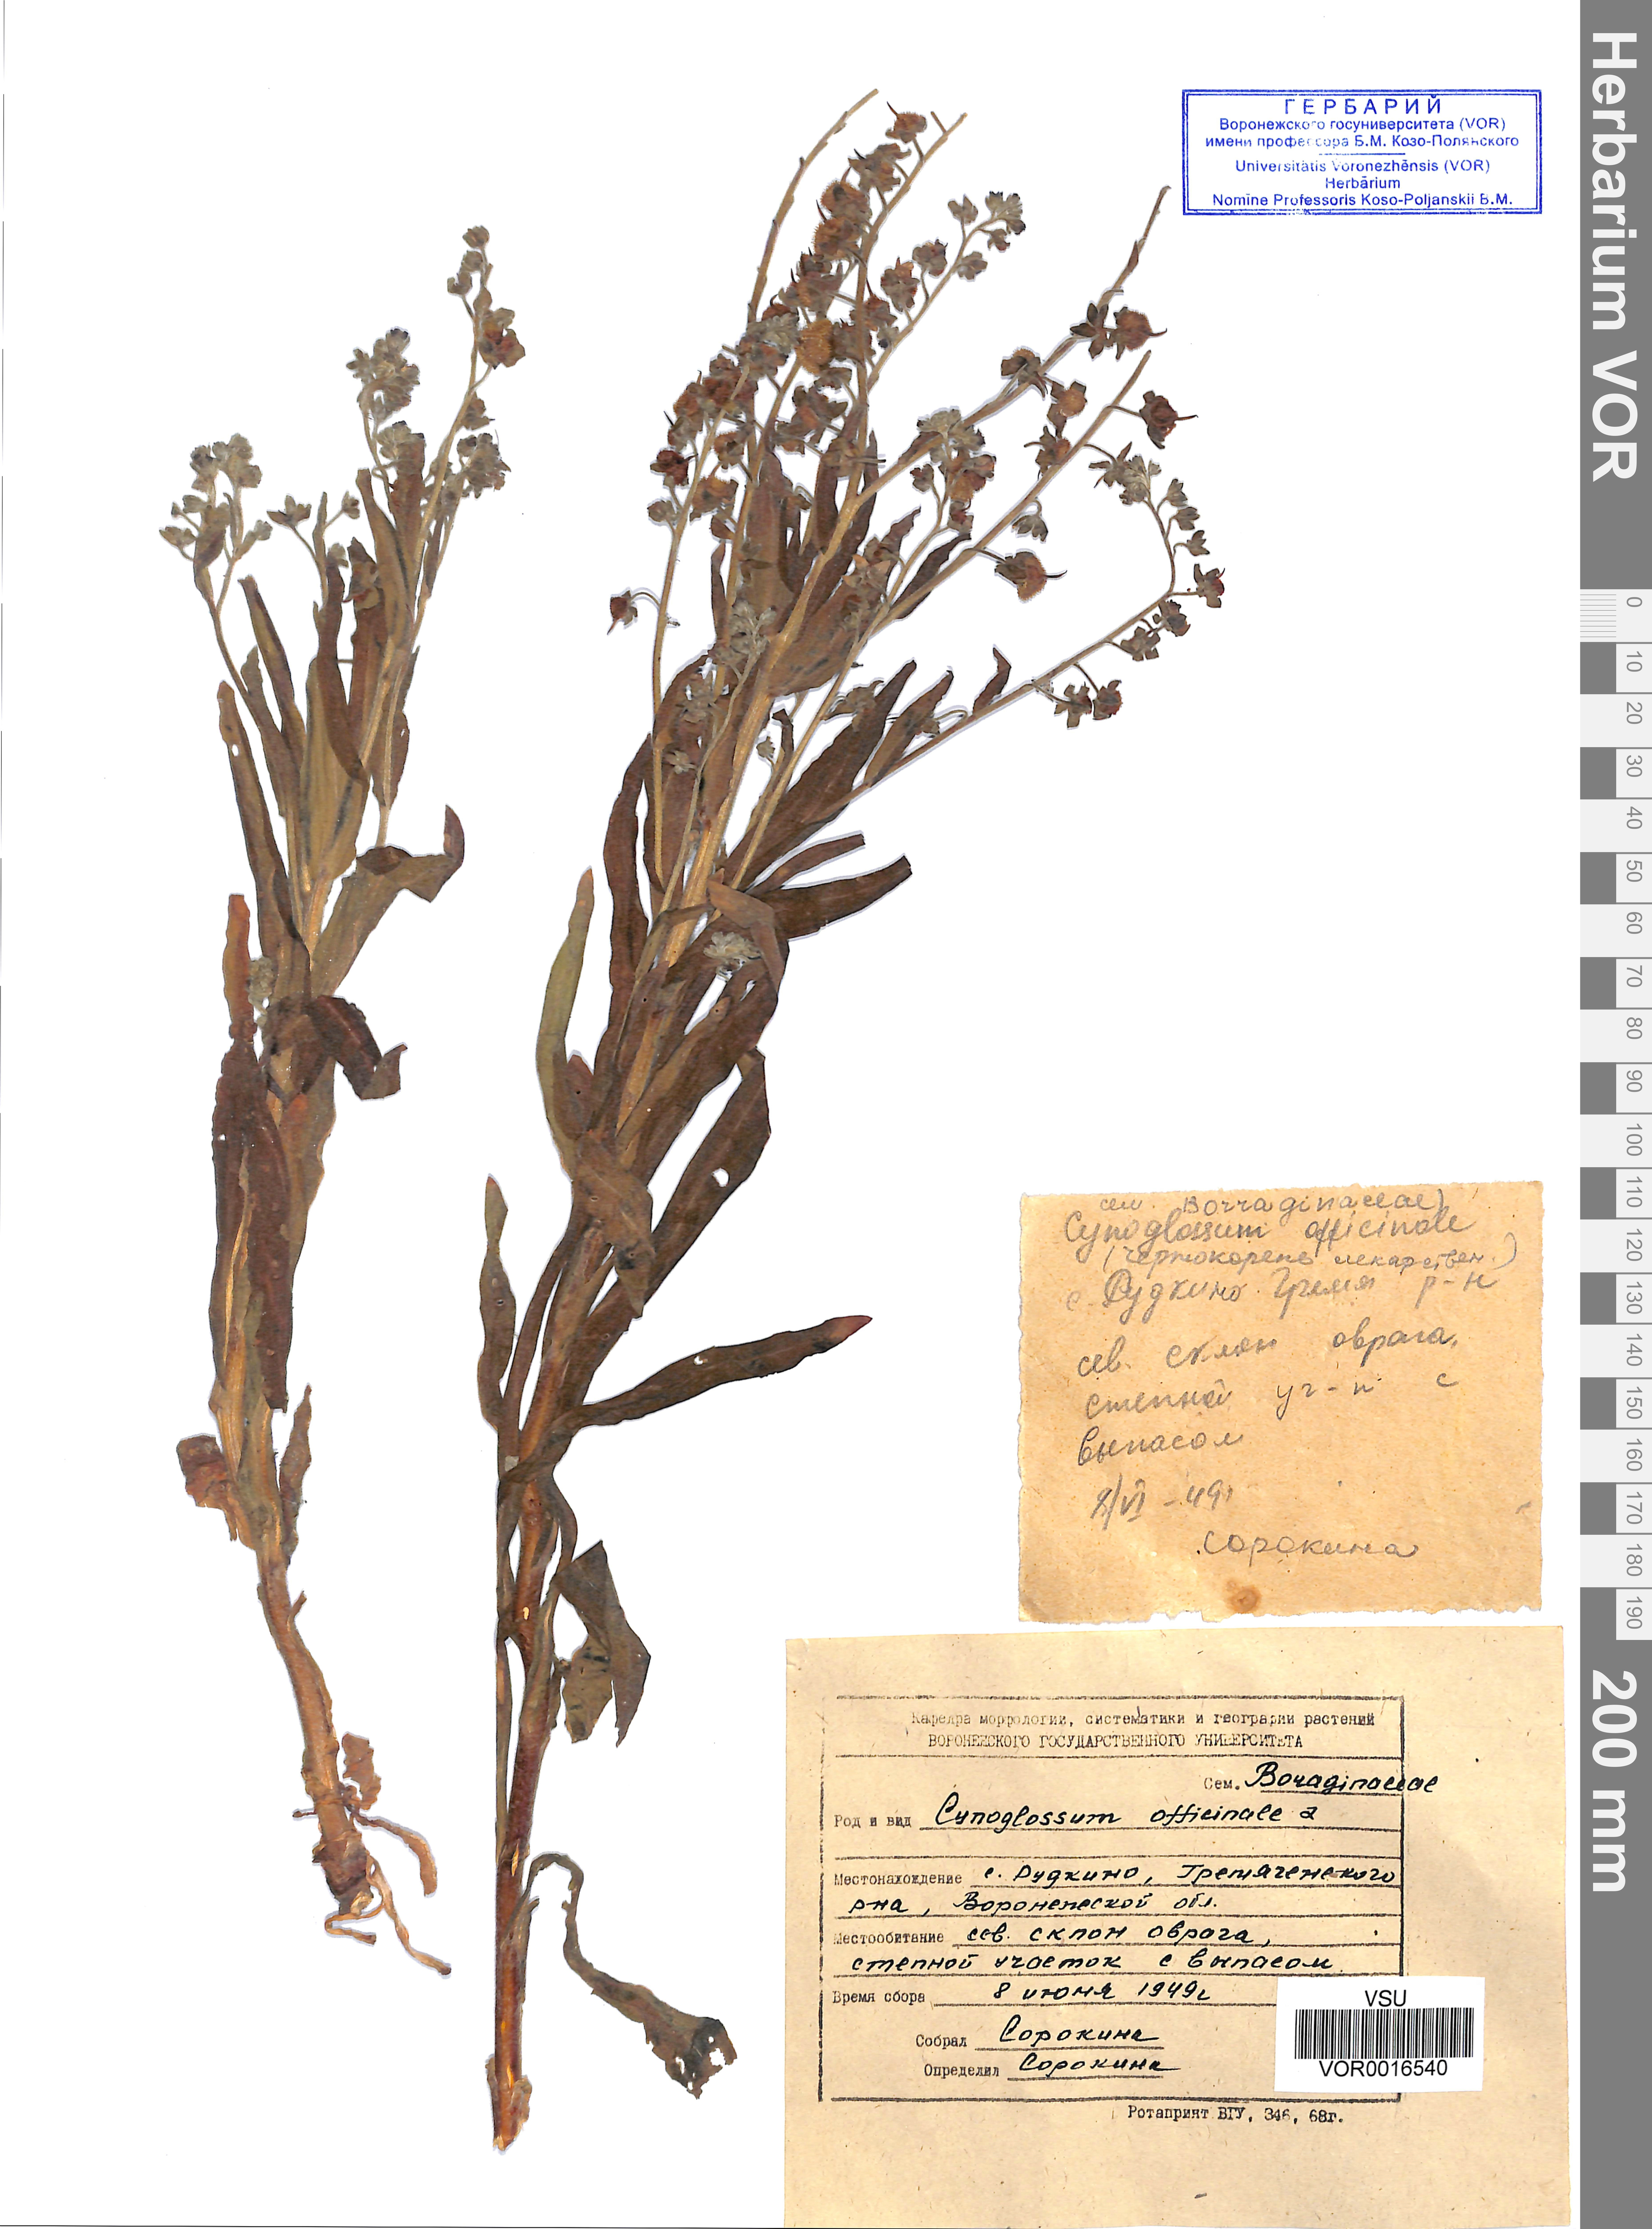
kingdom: Plantae
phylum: Tracheophyta
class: Magnoliopsida
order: Boraginales
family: Boraginaceae
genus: Cynoglossum
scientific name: Cynoglossum officinale
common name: Hound's-tongue
